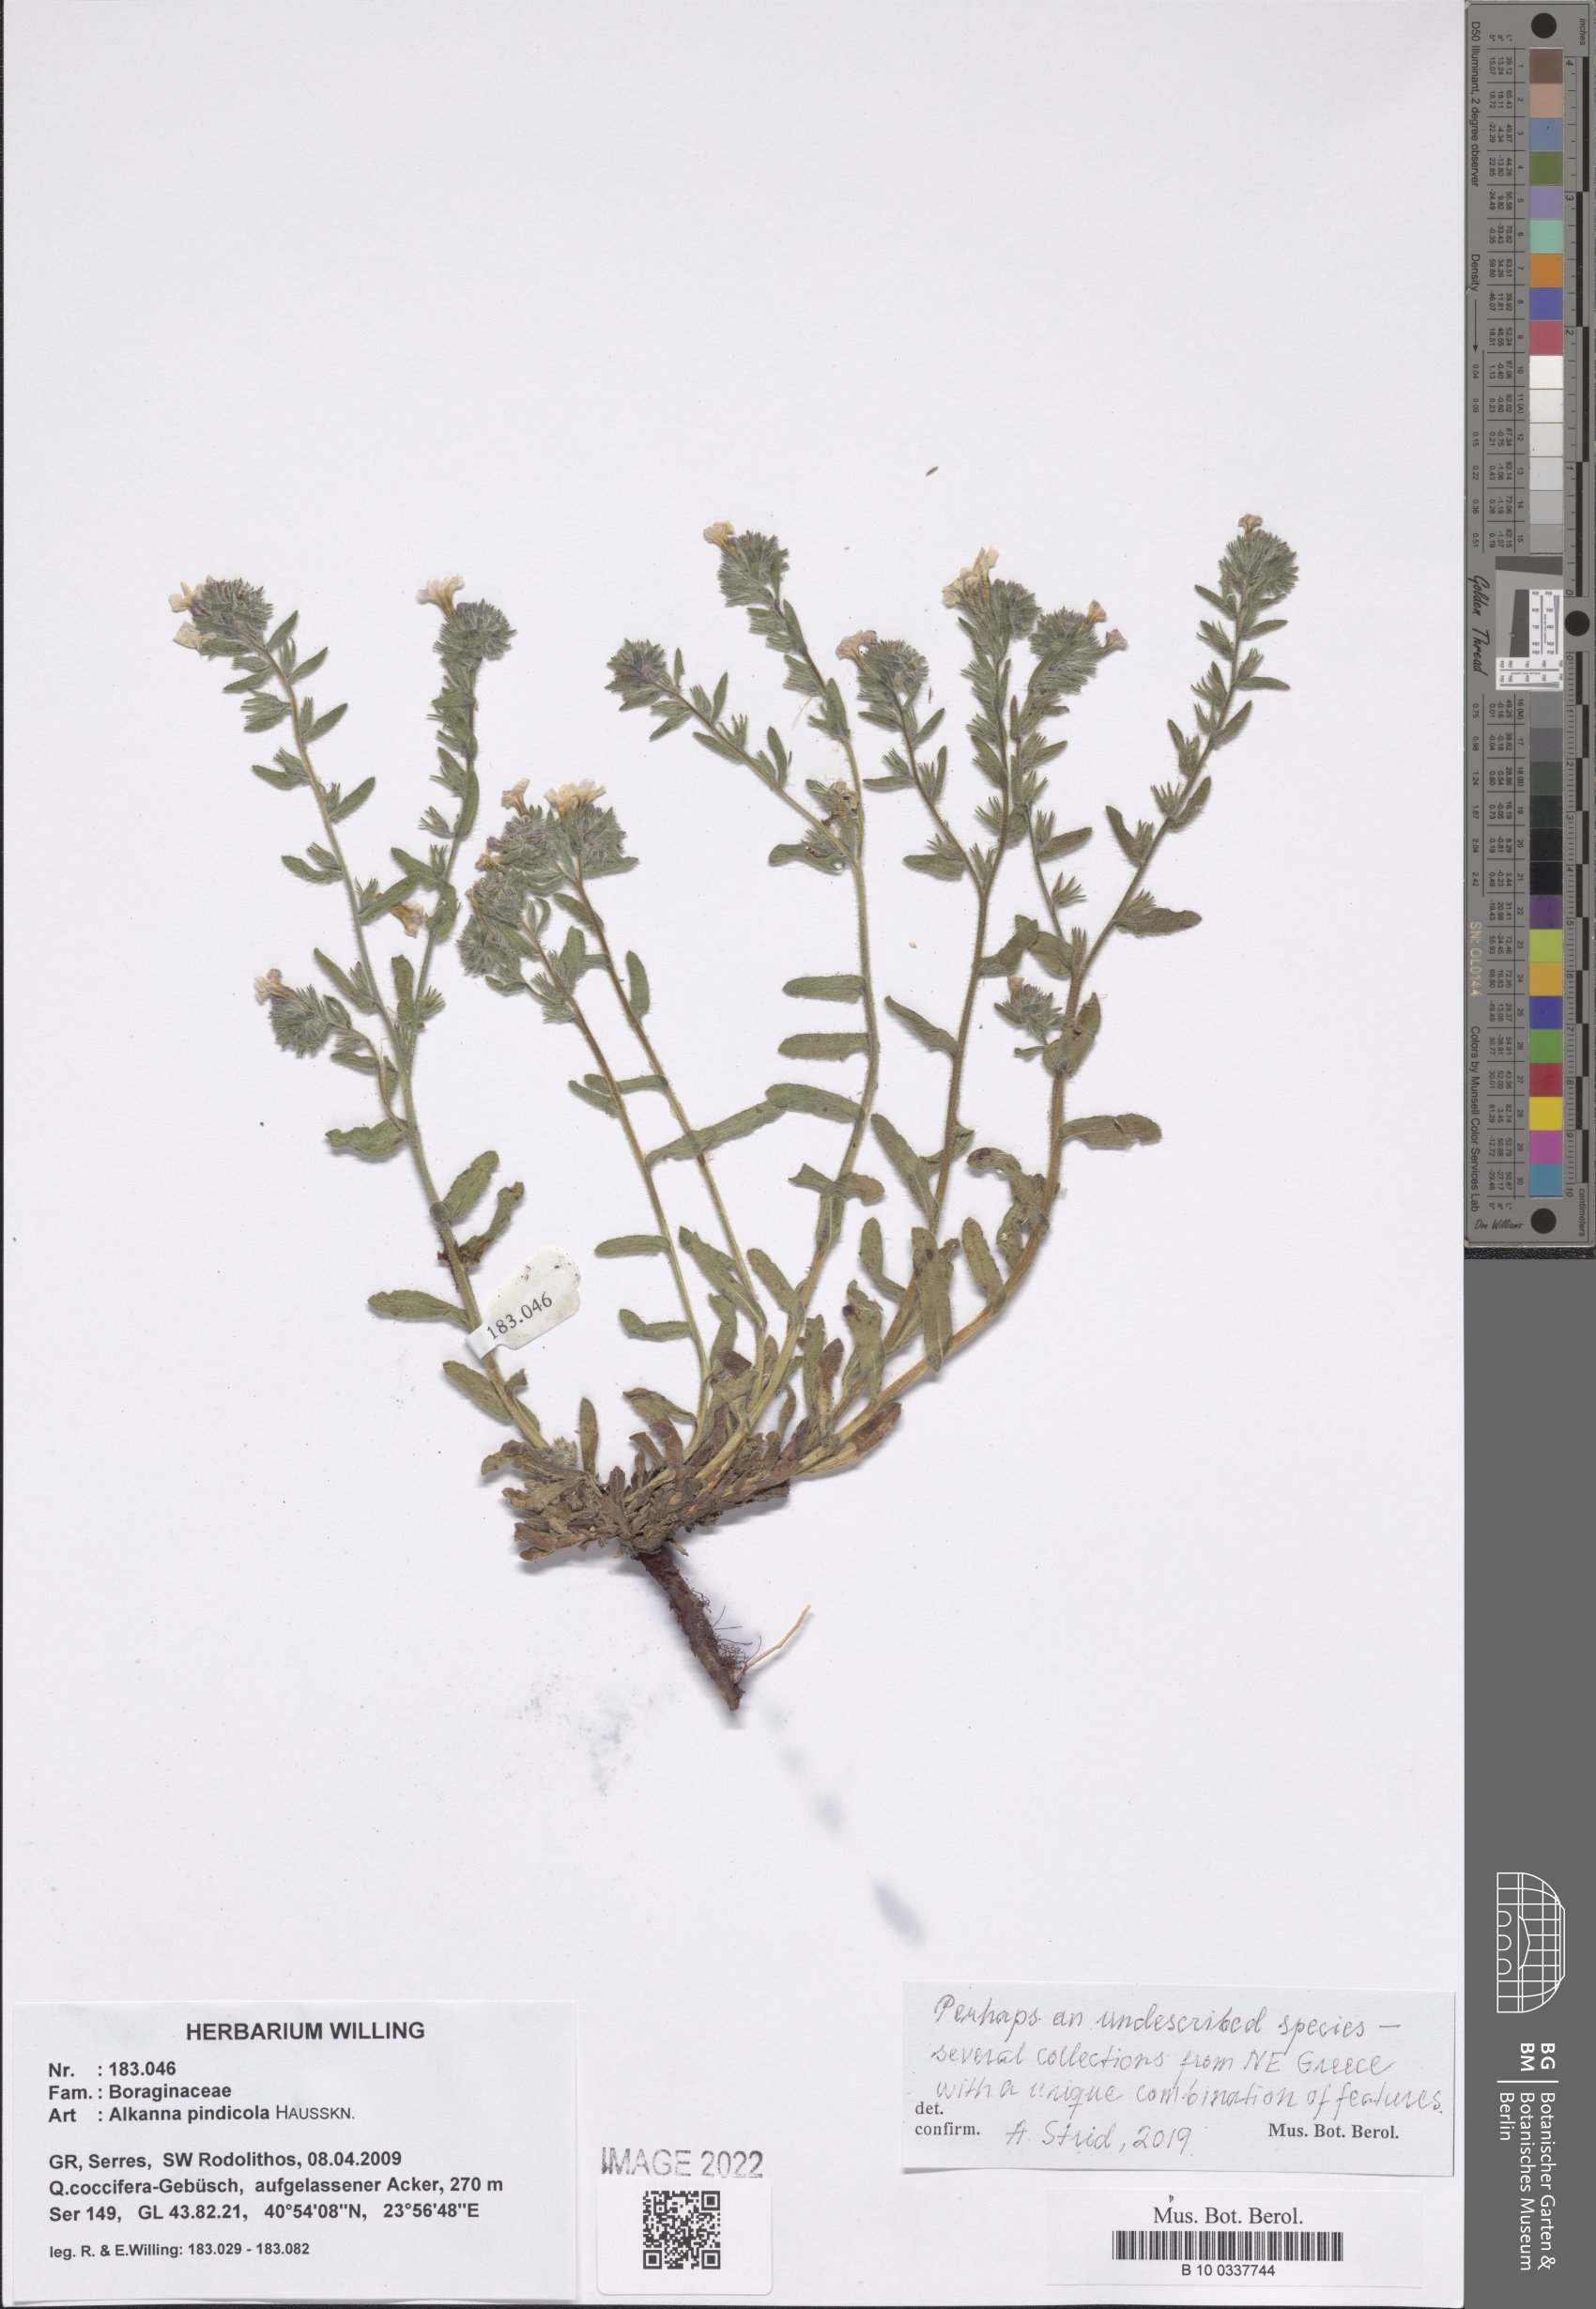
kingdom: Plantae
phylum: Tracheophyta
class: Magnoliopsida
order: Boraginales
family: Boraginaceae
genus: Alkanna
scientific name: Alkanna pindicola
